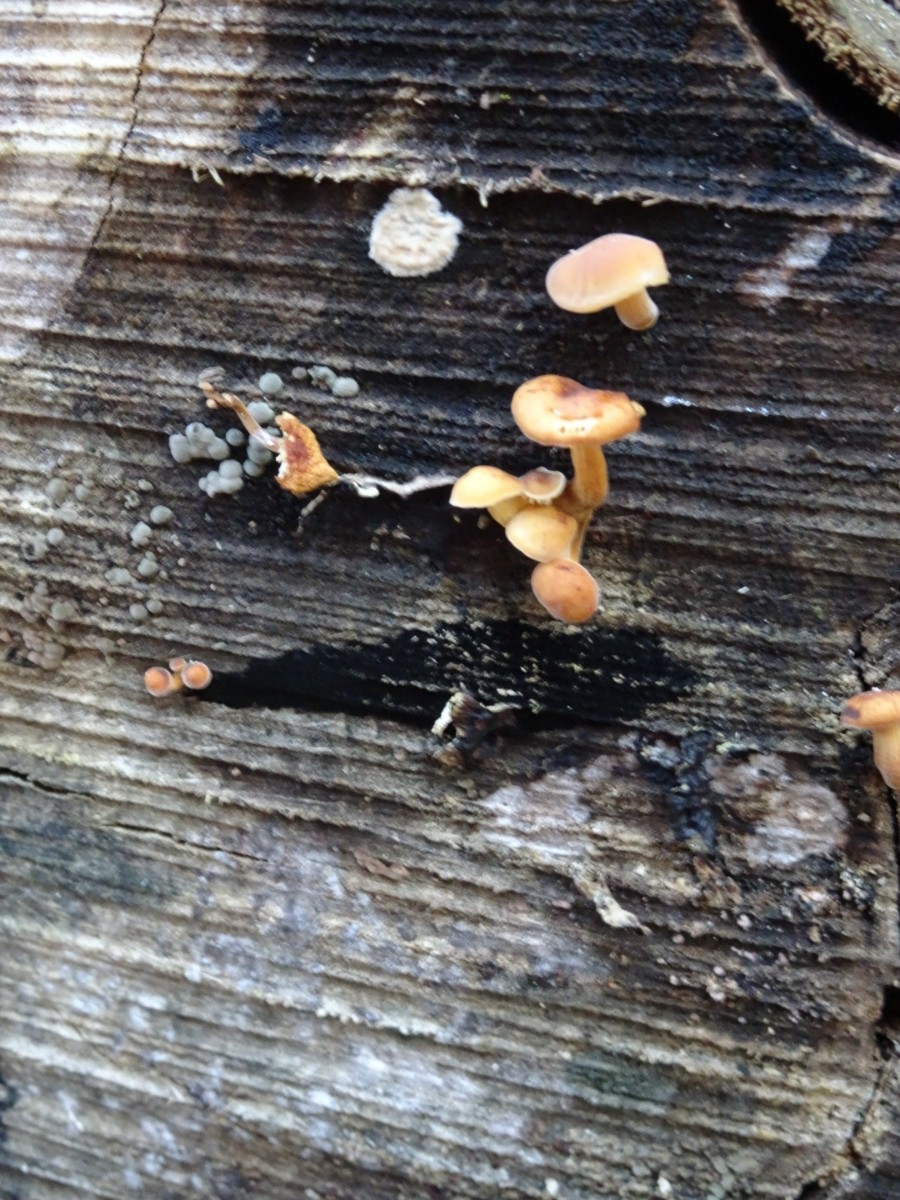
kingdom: Fungi
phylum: Basidiomycota
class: Agaricomycetes
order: Agaricales
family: Physalacriaceae
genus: Flammulina
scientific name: Flammulina velutipes
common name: gul fløjlsfod
